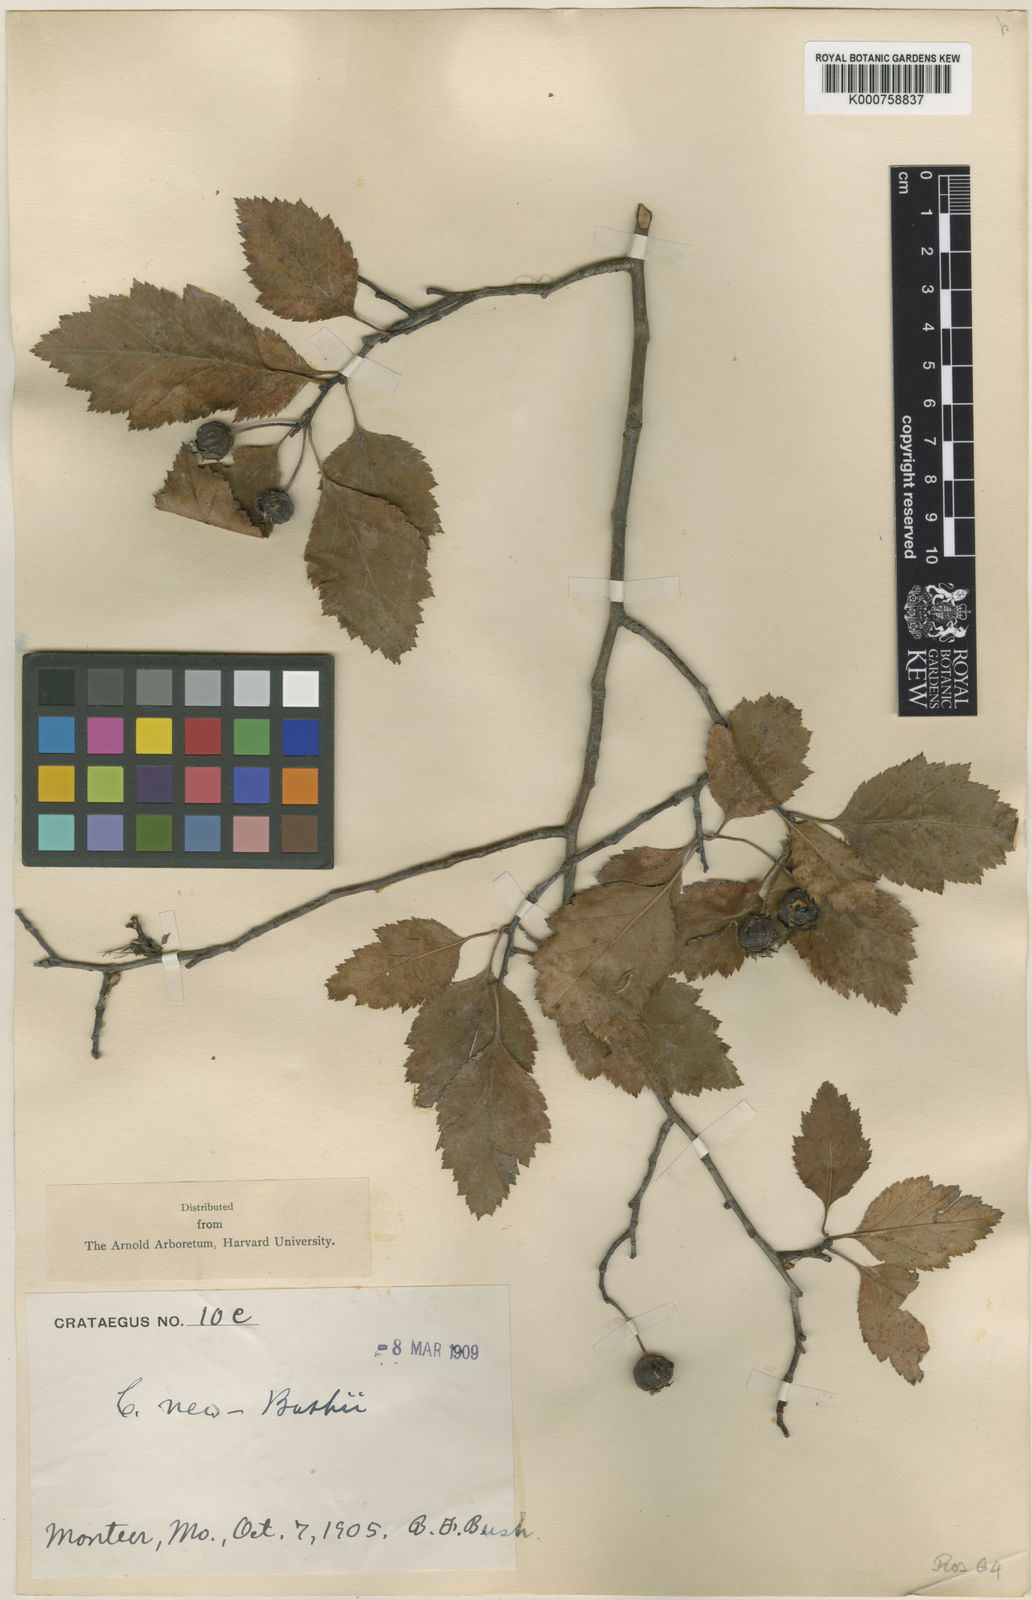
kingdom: Plantae
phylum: Tracheophyta
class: Magnoliopsida
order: Rosales
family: Rosaceae
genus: Crataegus
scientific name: Crataegus neobushii
